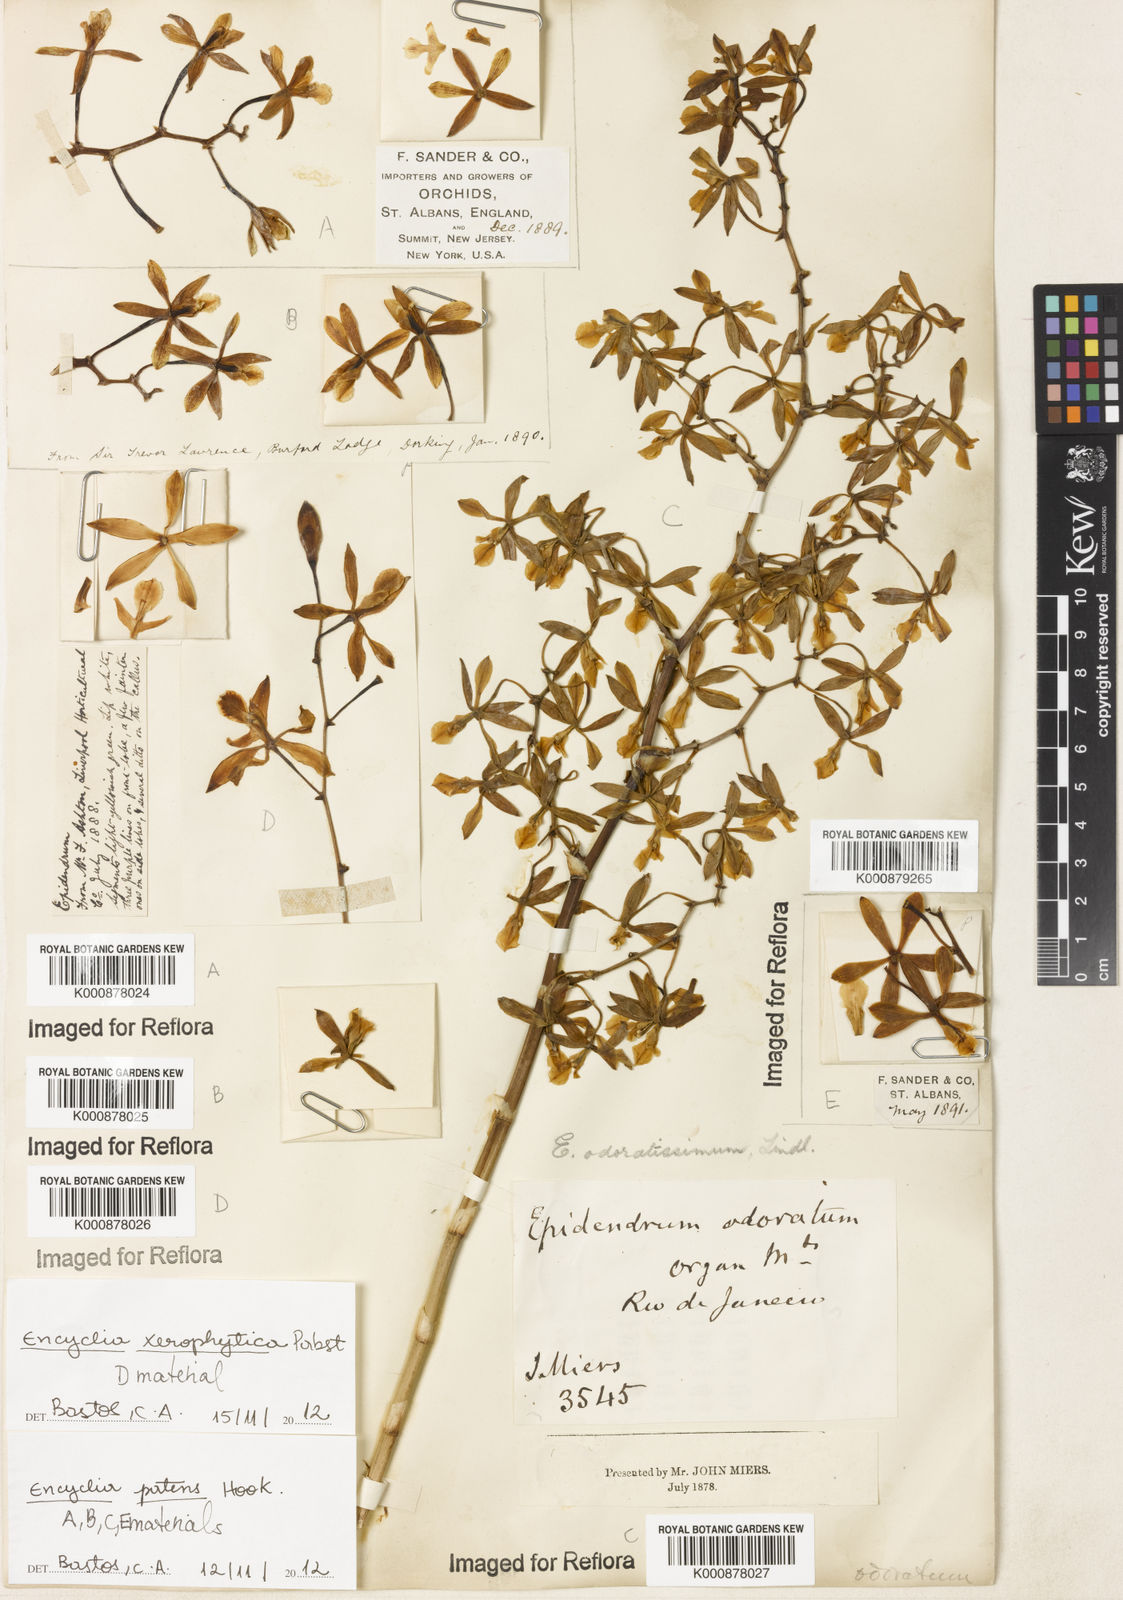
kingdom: Plantae
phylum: Tracheophyta
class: Liliopsida
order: Asparagales
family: Orchidaceae
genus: Encyclia
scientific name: Encyclia patens
